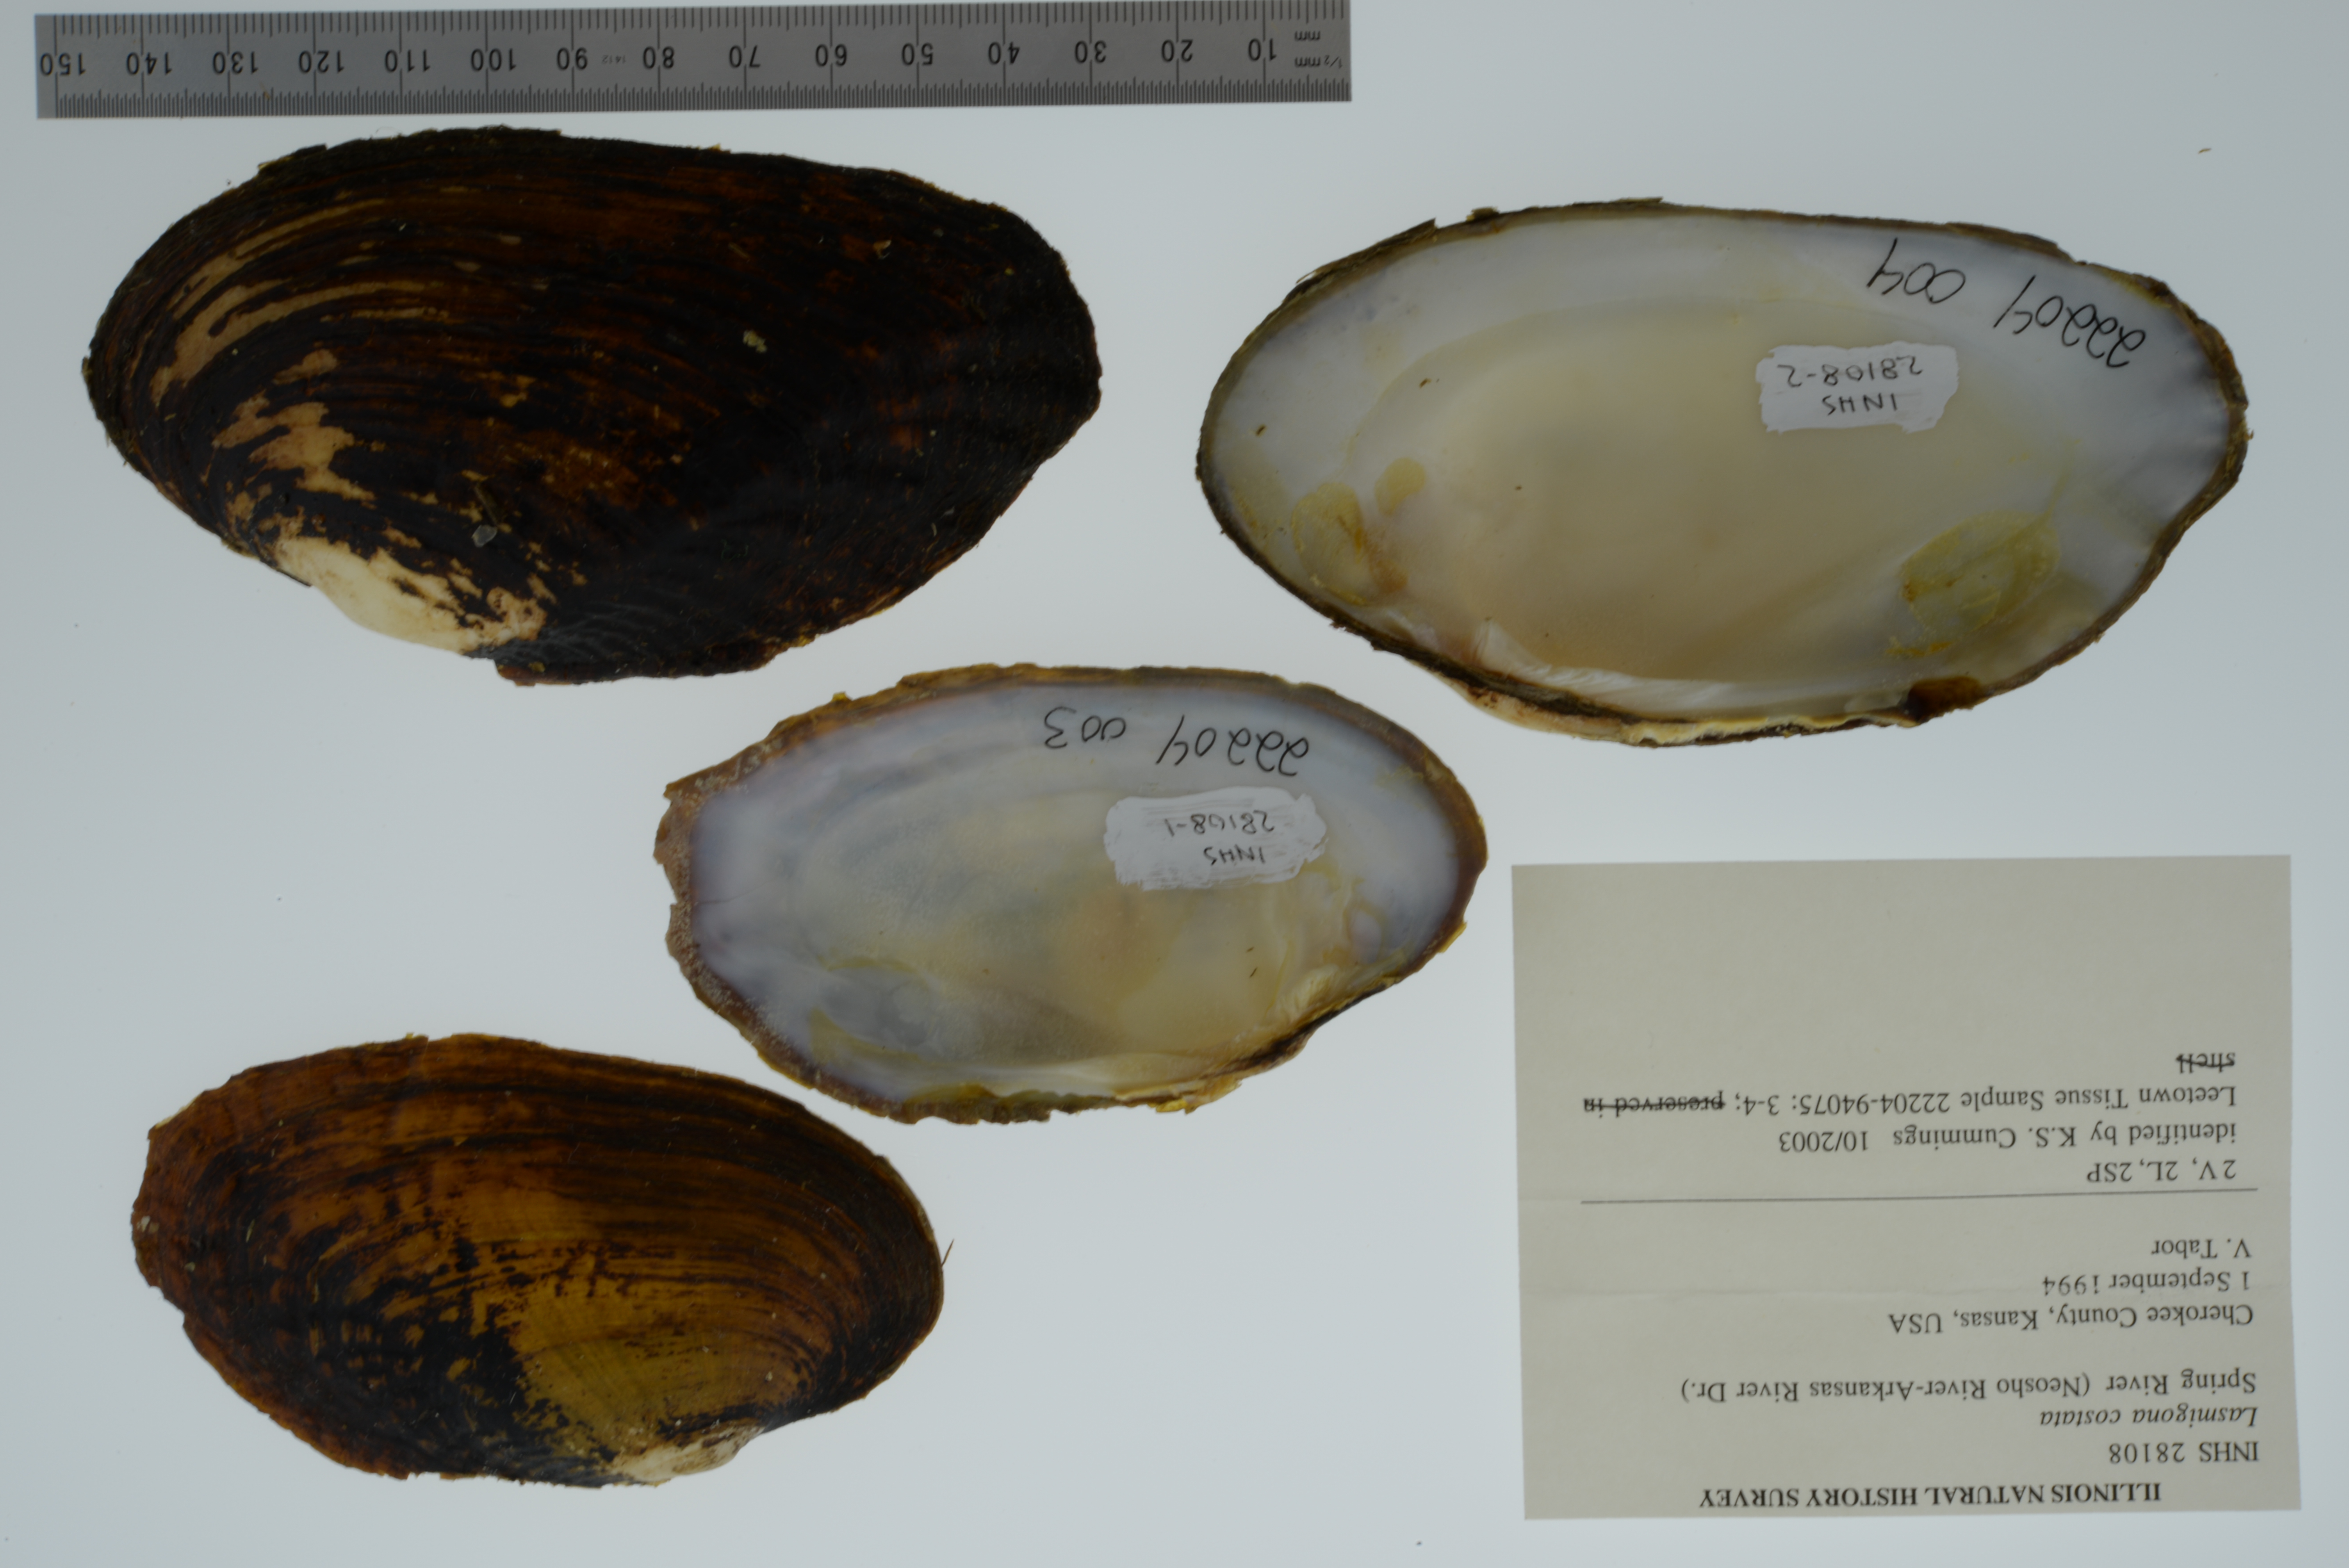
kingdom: Animalia
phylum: Mollusca
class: Bivalvia
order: Unionida
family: Unionidae
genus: Lasmigona
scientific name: Lasmigona costata
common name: Flutedshell
